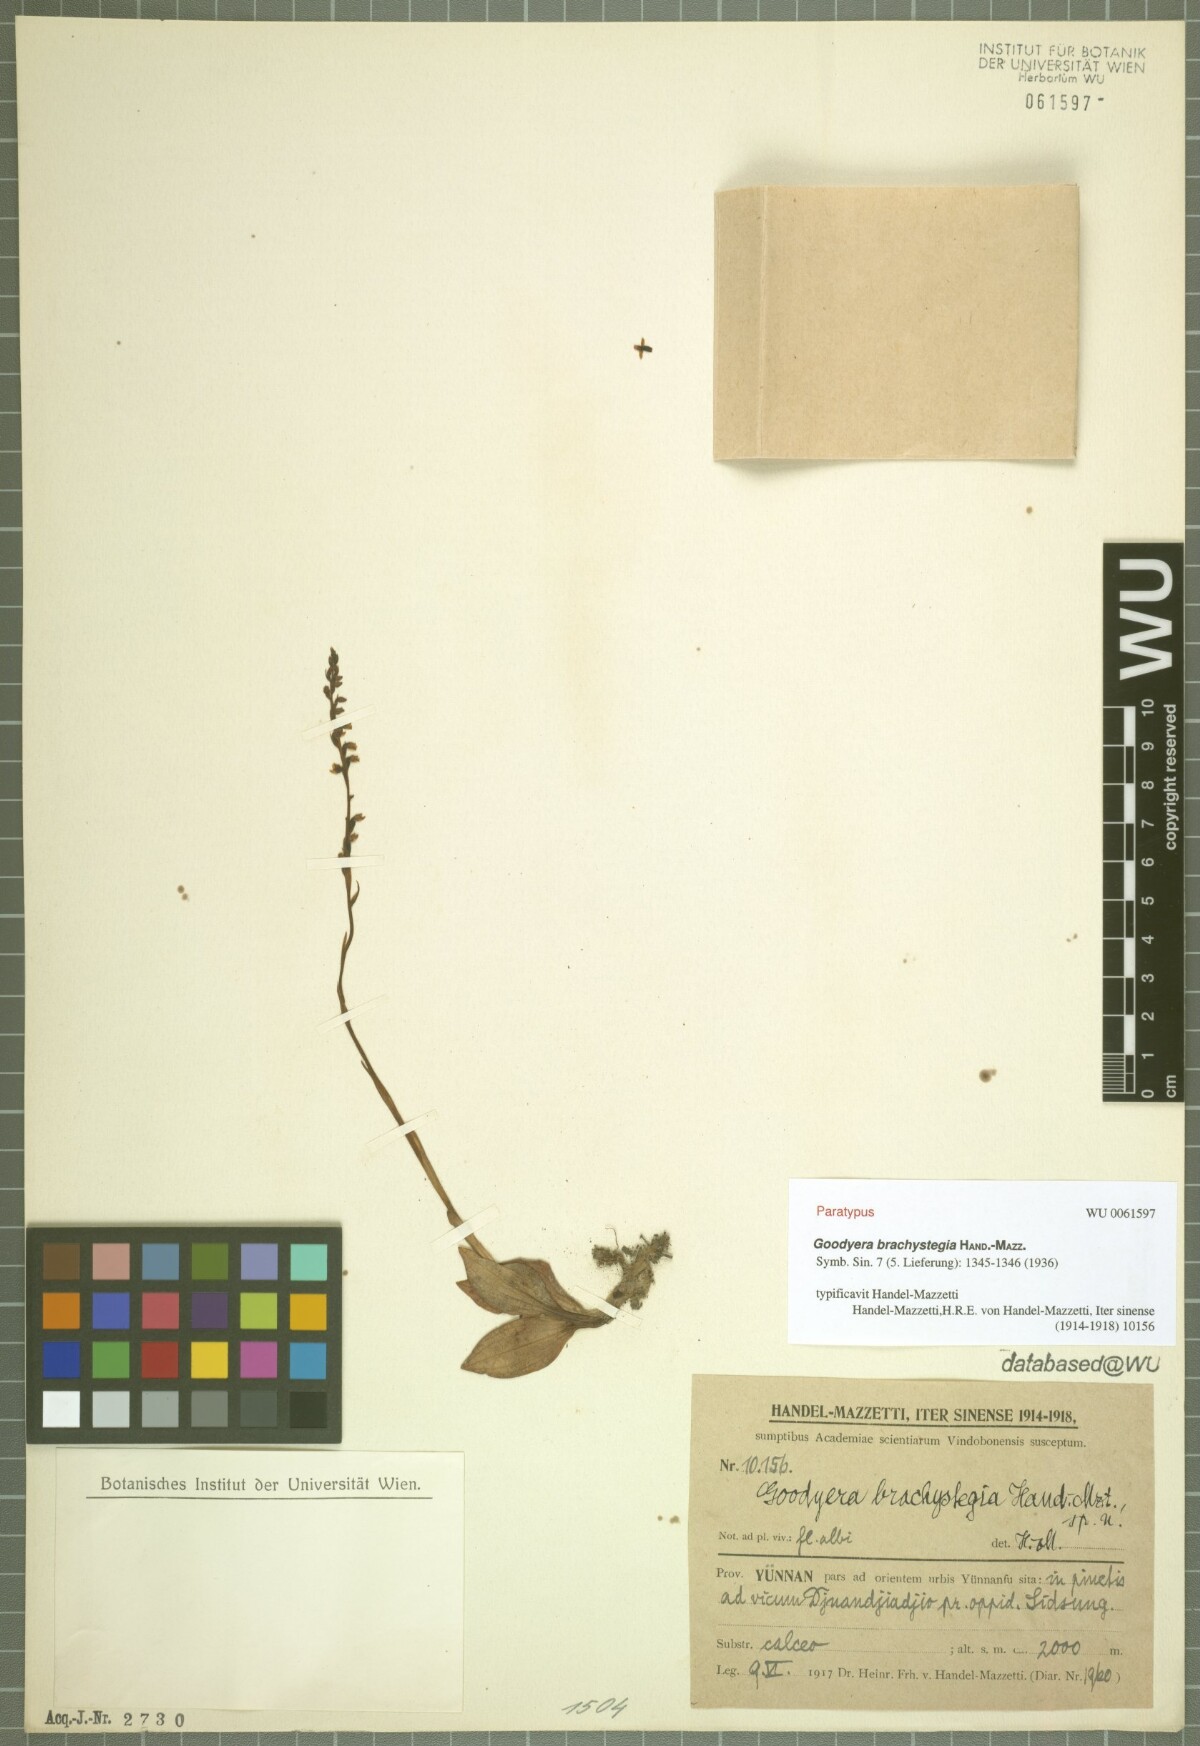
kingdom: Plantae
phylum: Tracheophyta
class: Liliopsida
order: Asparagales
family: Orchidaceae
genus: Goodyera
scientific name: Goodyera brachystegia
